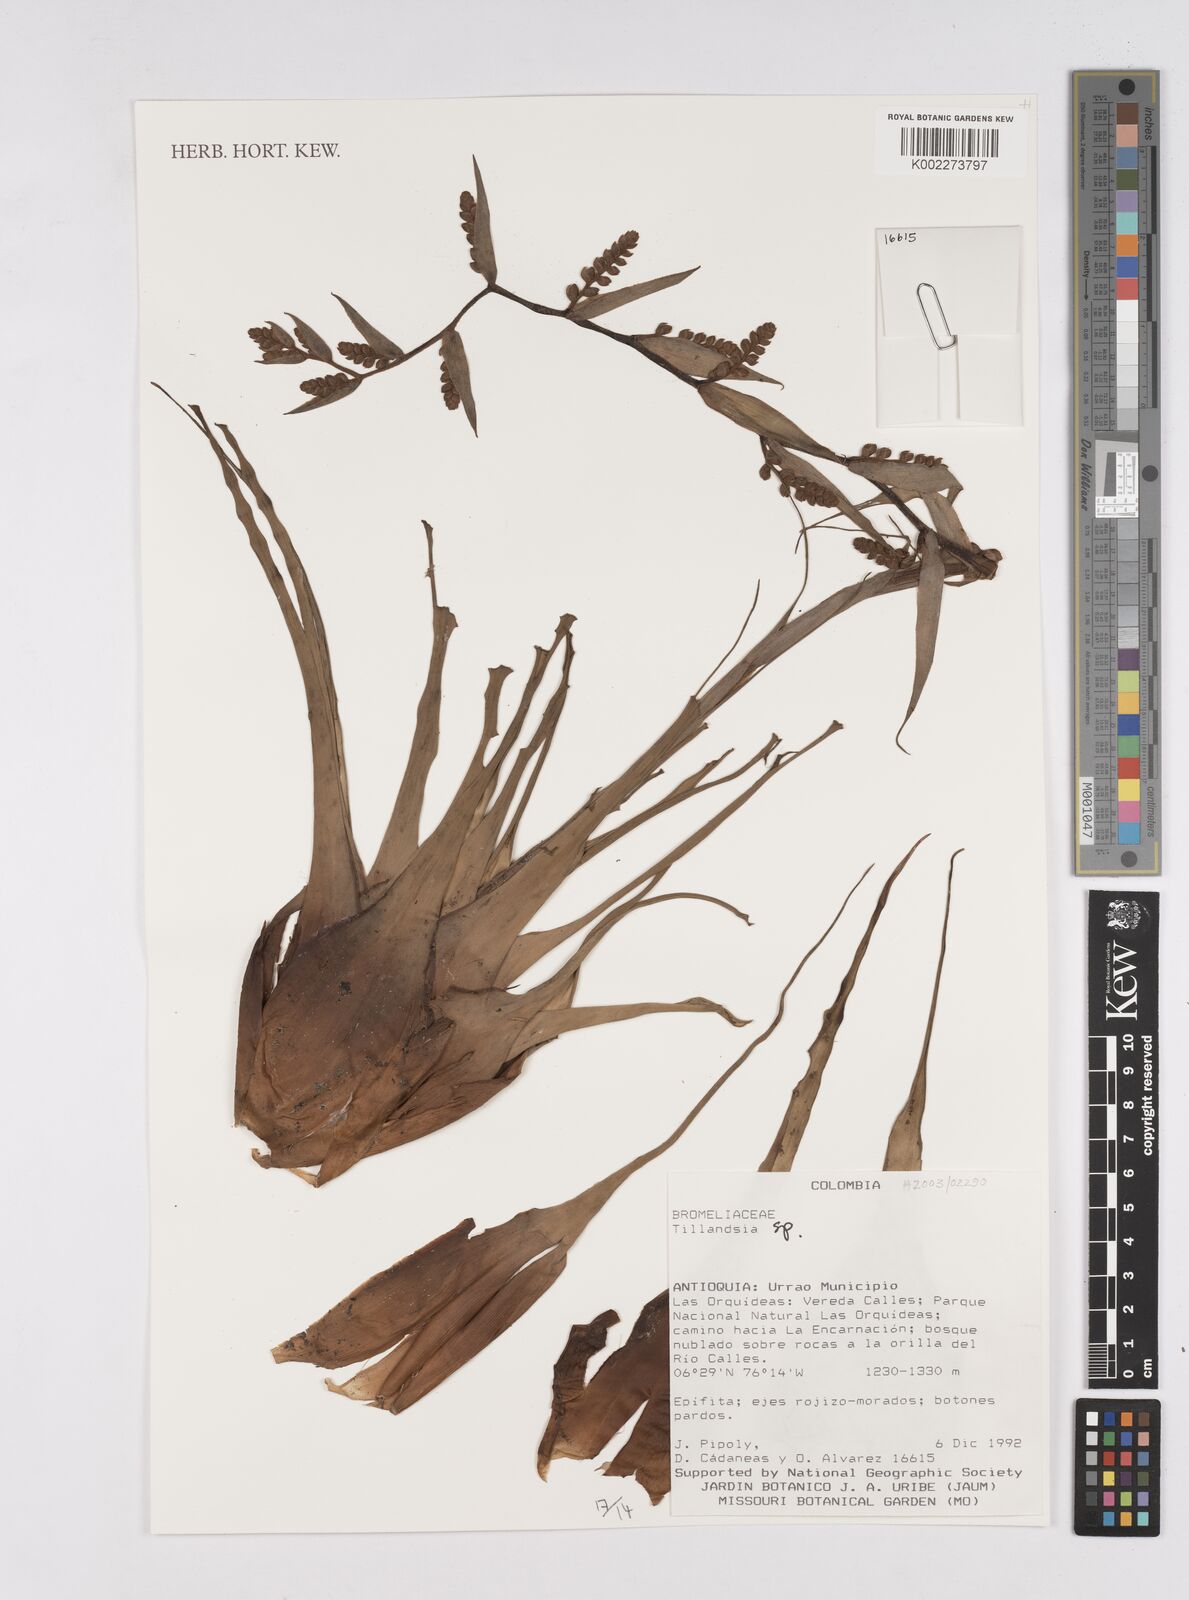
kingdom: Plantae
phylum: Tracheophyta
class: Liliopsida
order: Poales
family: Bromeliaceae
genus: Tillandsia
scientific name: Tillandsia
